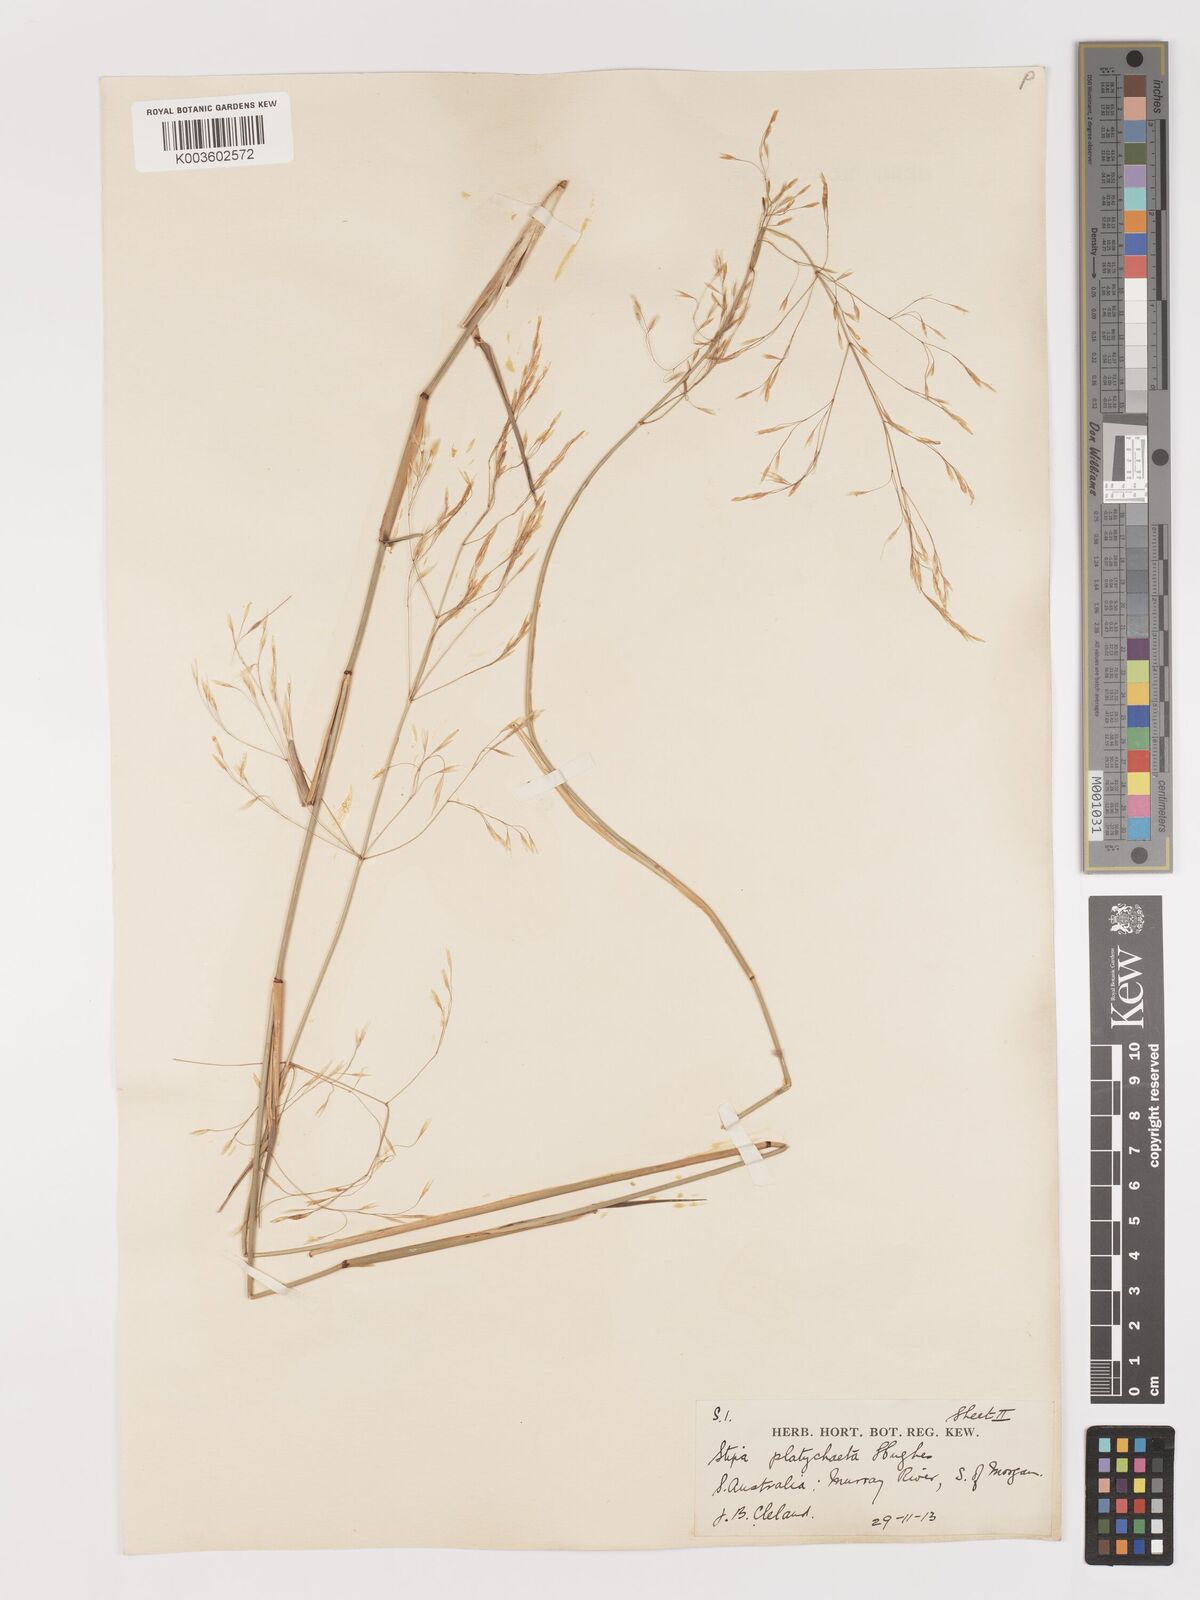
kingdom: Plantae
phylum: Tracheophyta
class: Liliopsida
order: Poales
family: Poaceae
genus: Austrostipa
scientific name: Austrostipa platychaeta
